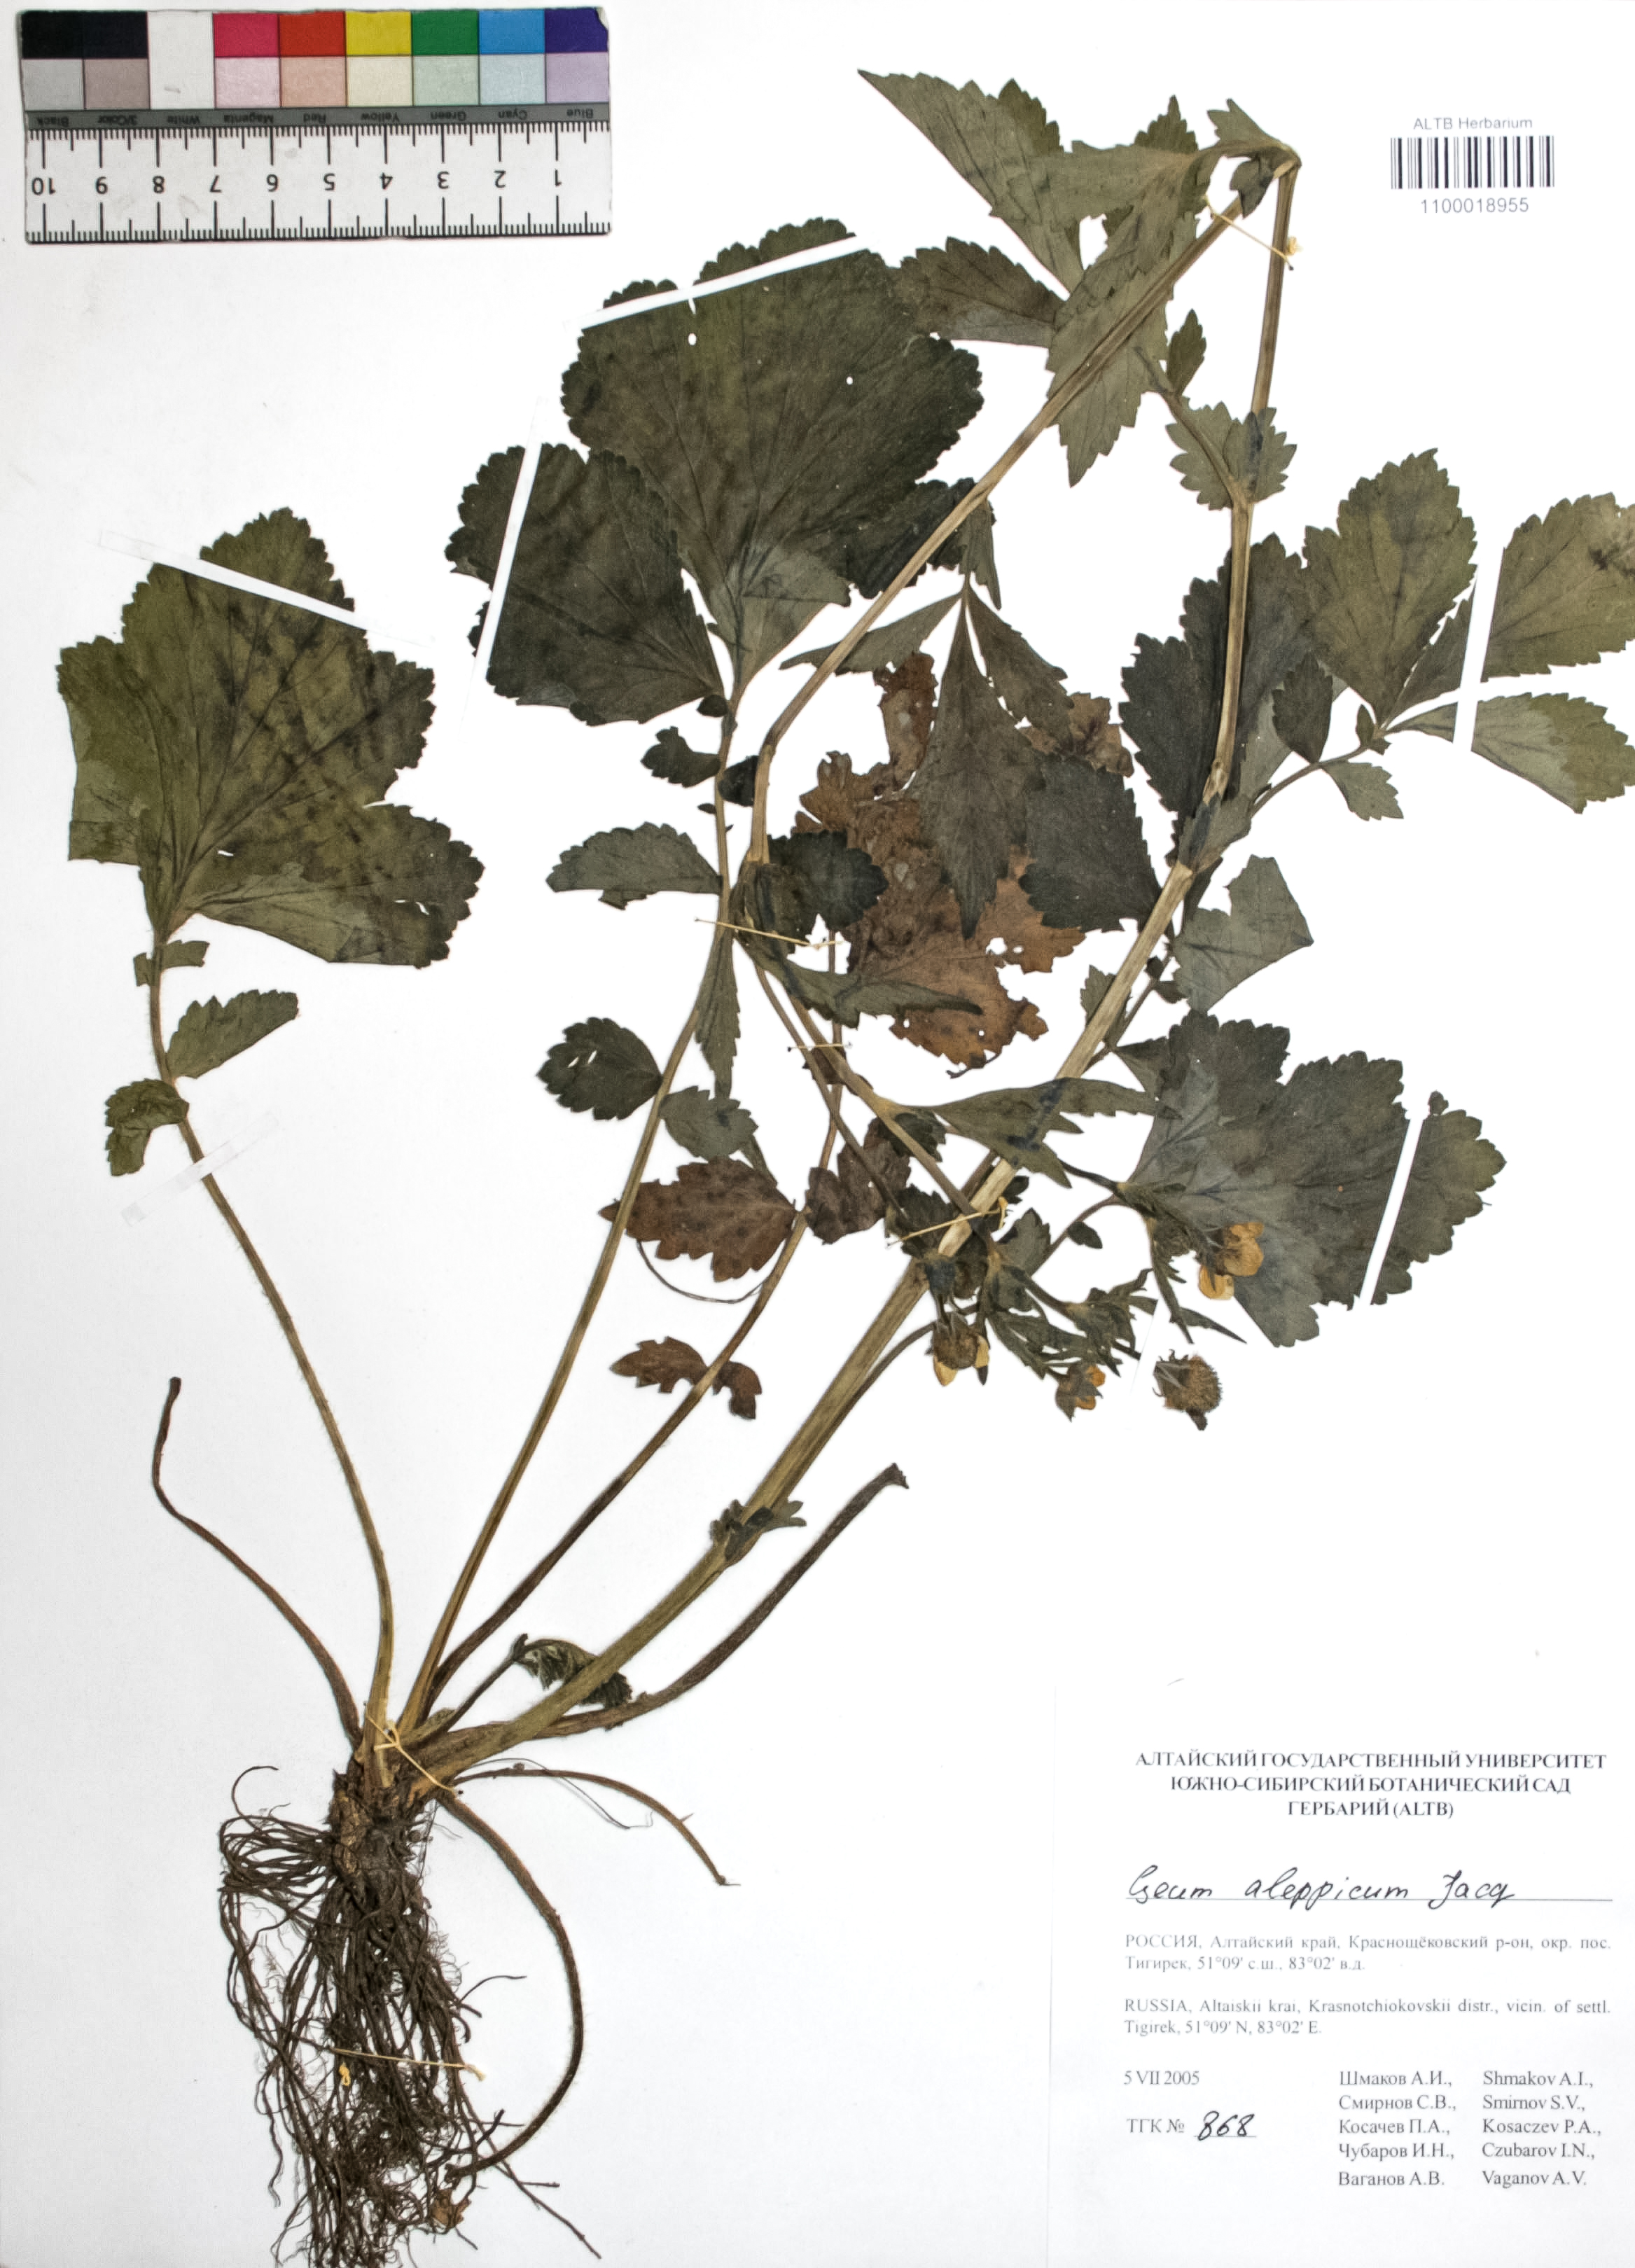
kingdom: Plantae
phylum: Tracheophyta
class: Magnoliopsida
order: Rosales
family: Rosaceae
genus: Geum
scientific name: Geum aleppicum
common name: Yellow avens
